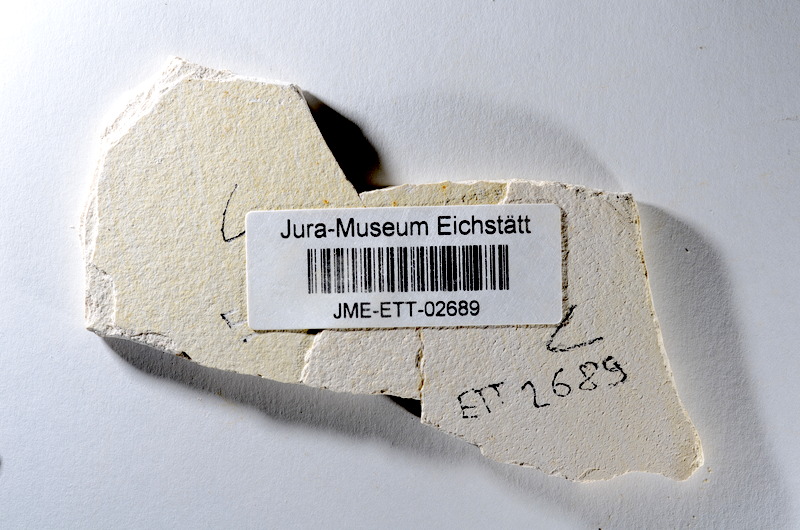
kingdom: Animalia
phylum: Chordata
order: Salmoniformes
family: Orthogonikleithridae
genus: Orthogonikleithrus
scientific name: Orthogonikleithrus hoelli
